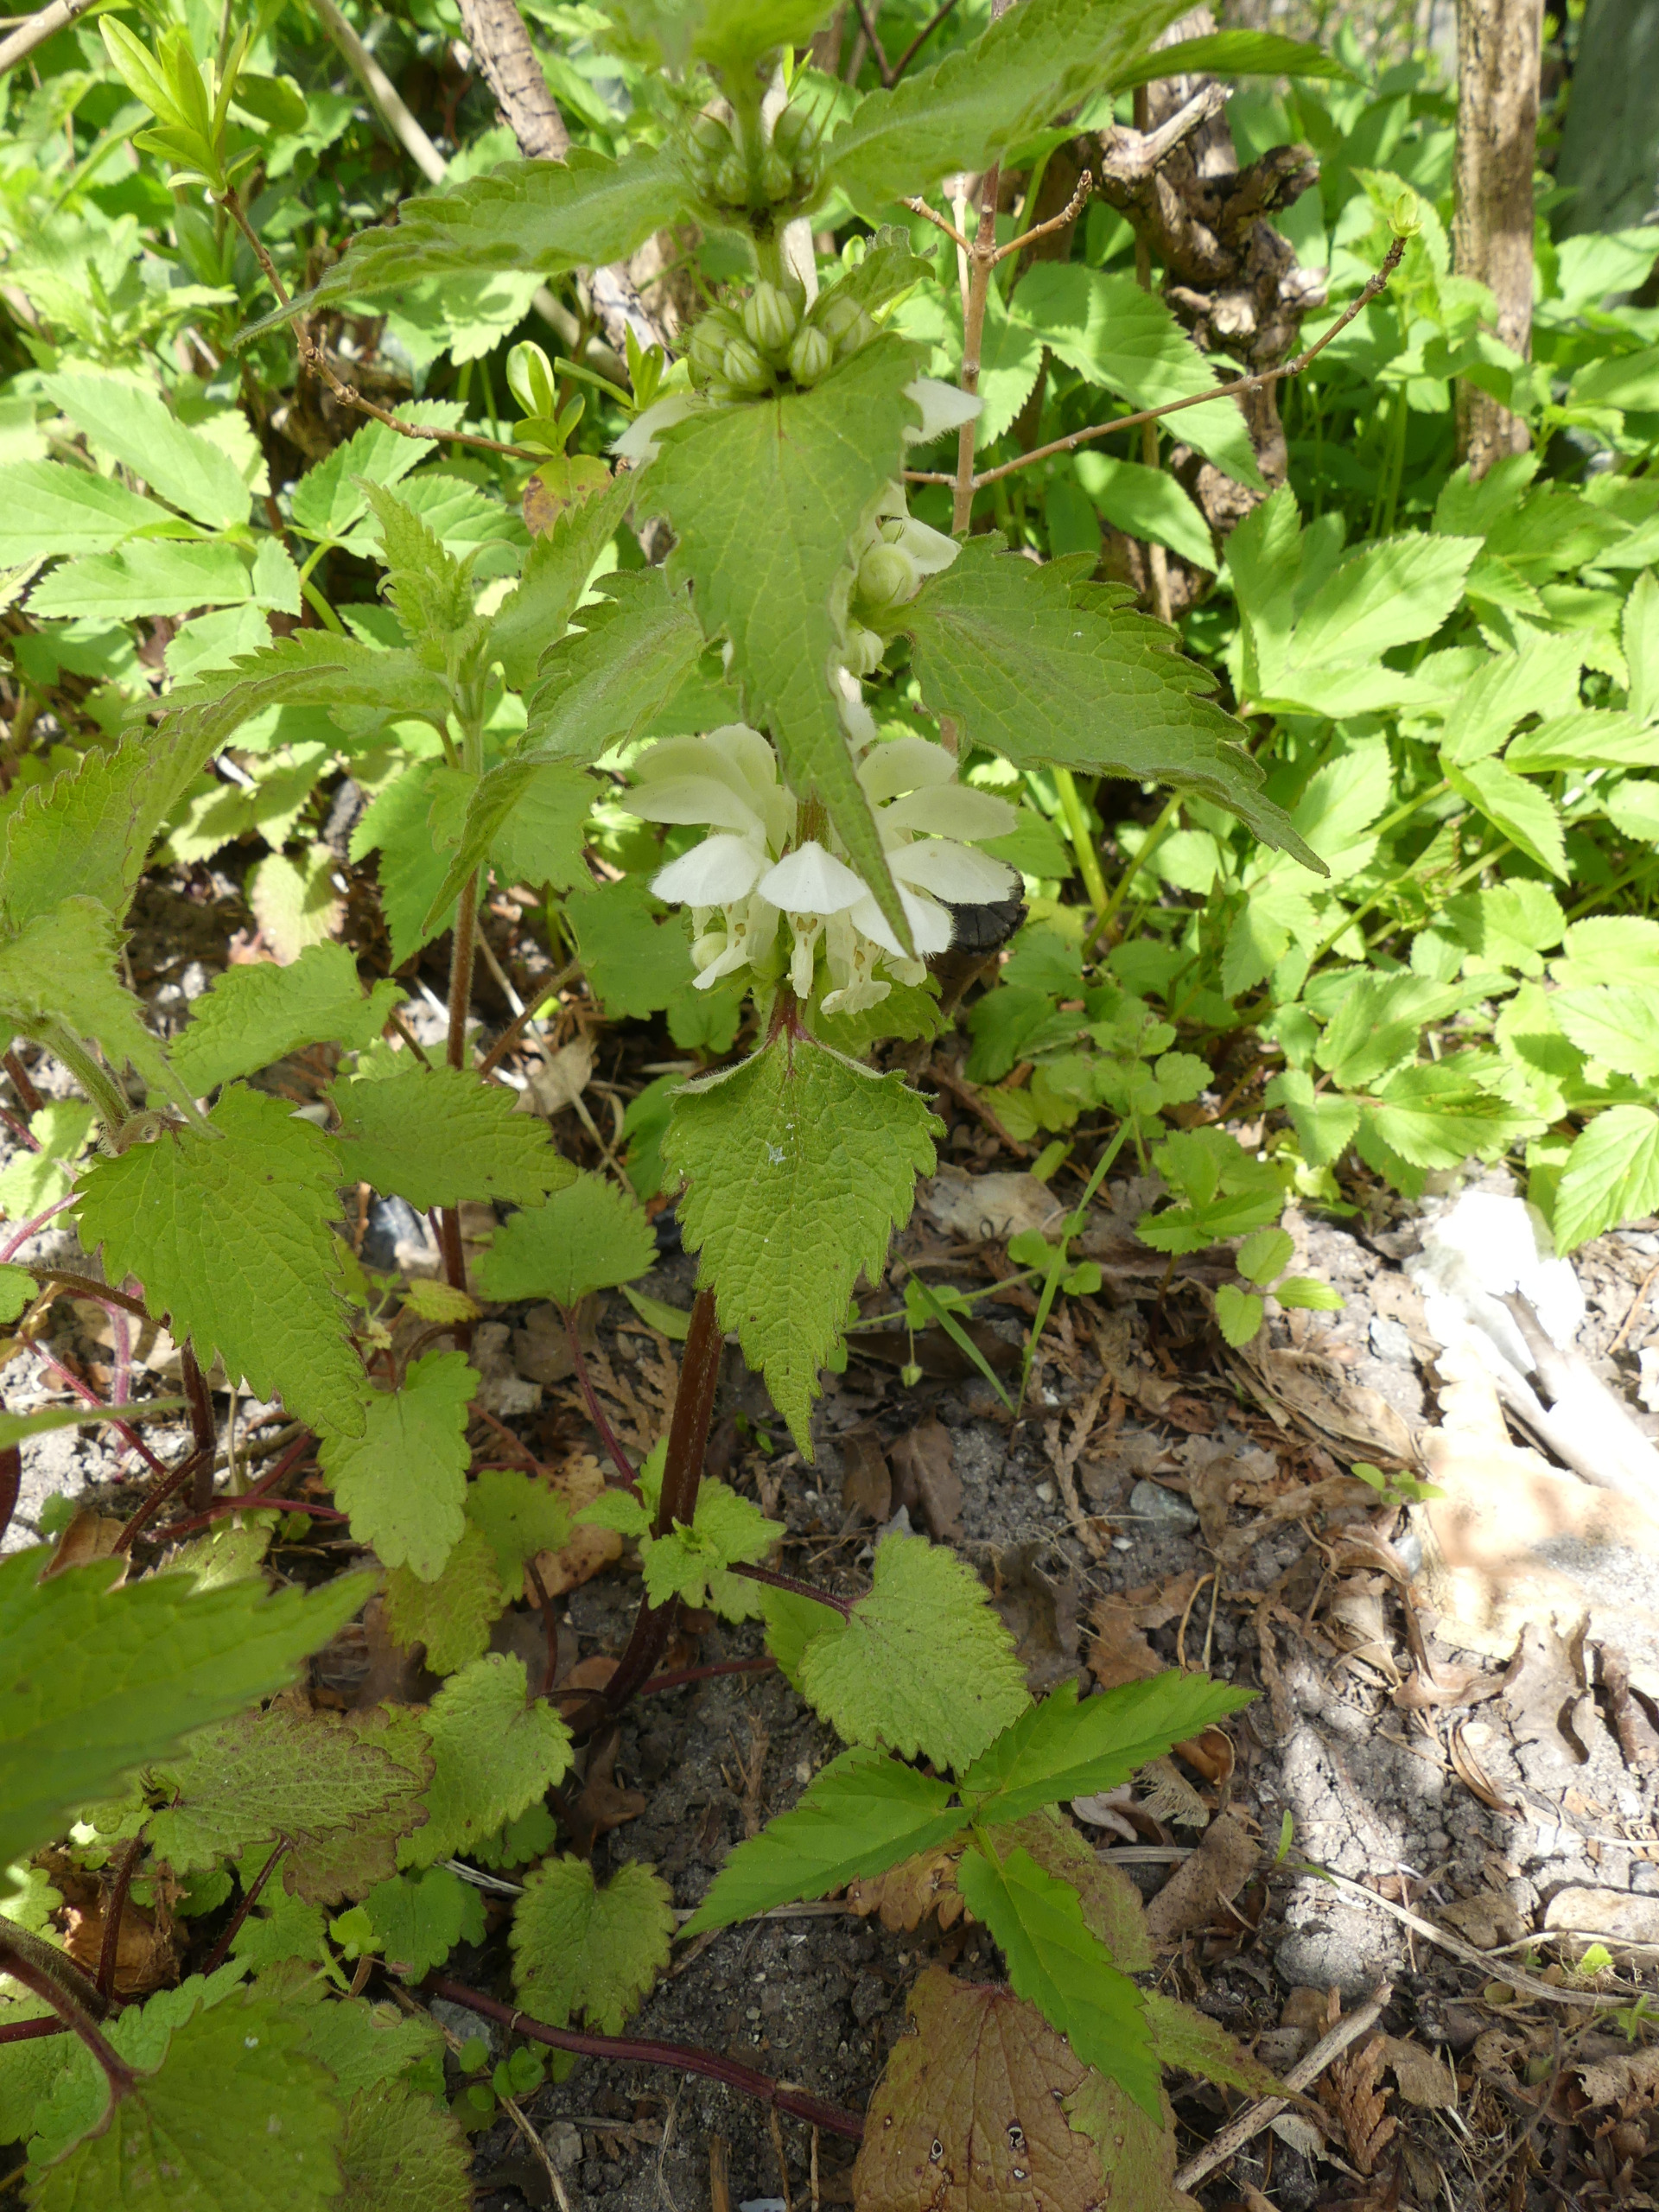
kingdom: Plantae
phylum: Tracheophyta
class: Magnoliopsida
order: Lamiales
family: Lamiaceae
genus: Lamium
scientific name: Lamium album
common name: Døvnælde
